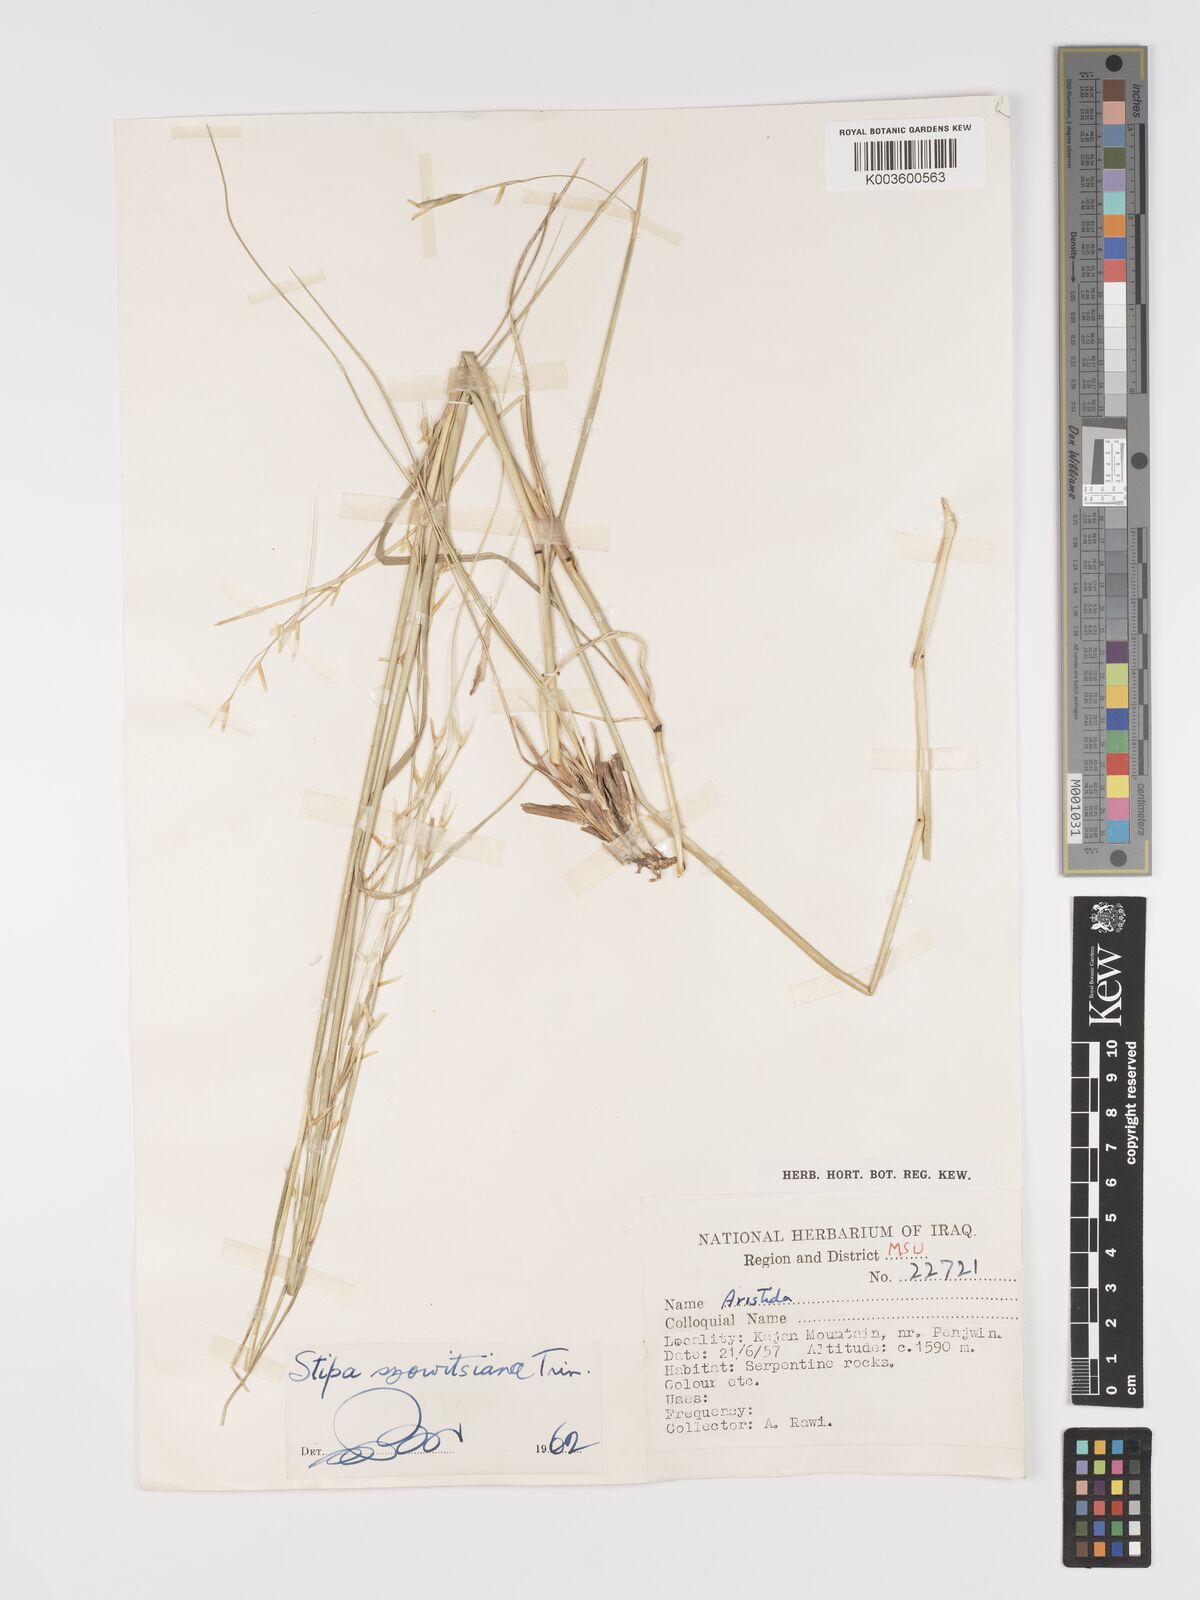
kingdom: Plantae
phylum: Tracheophyta
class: Liliopsida
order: Poales
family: Poaceae
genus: Stipa
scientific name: Stipa barbata
